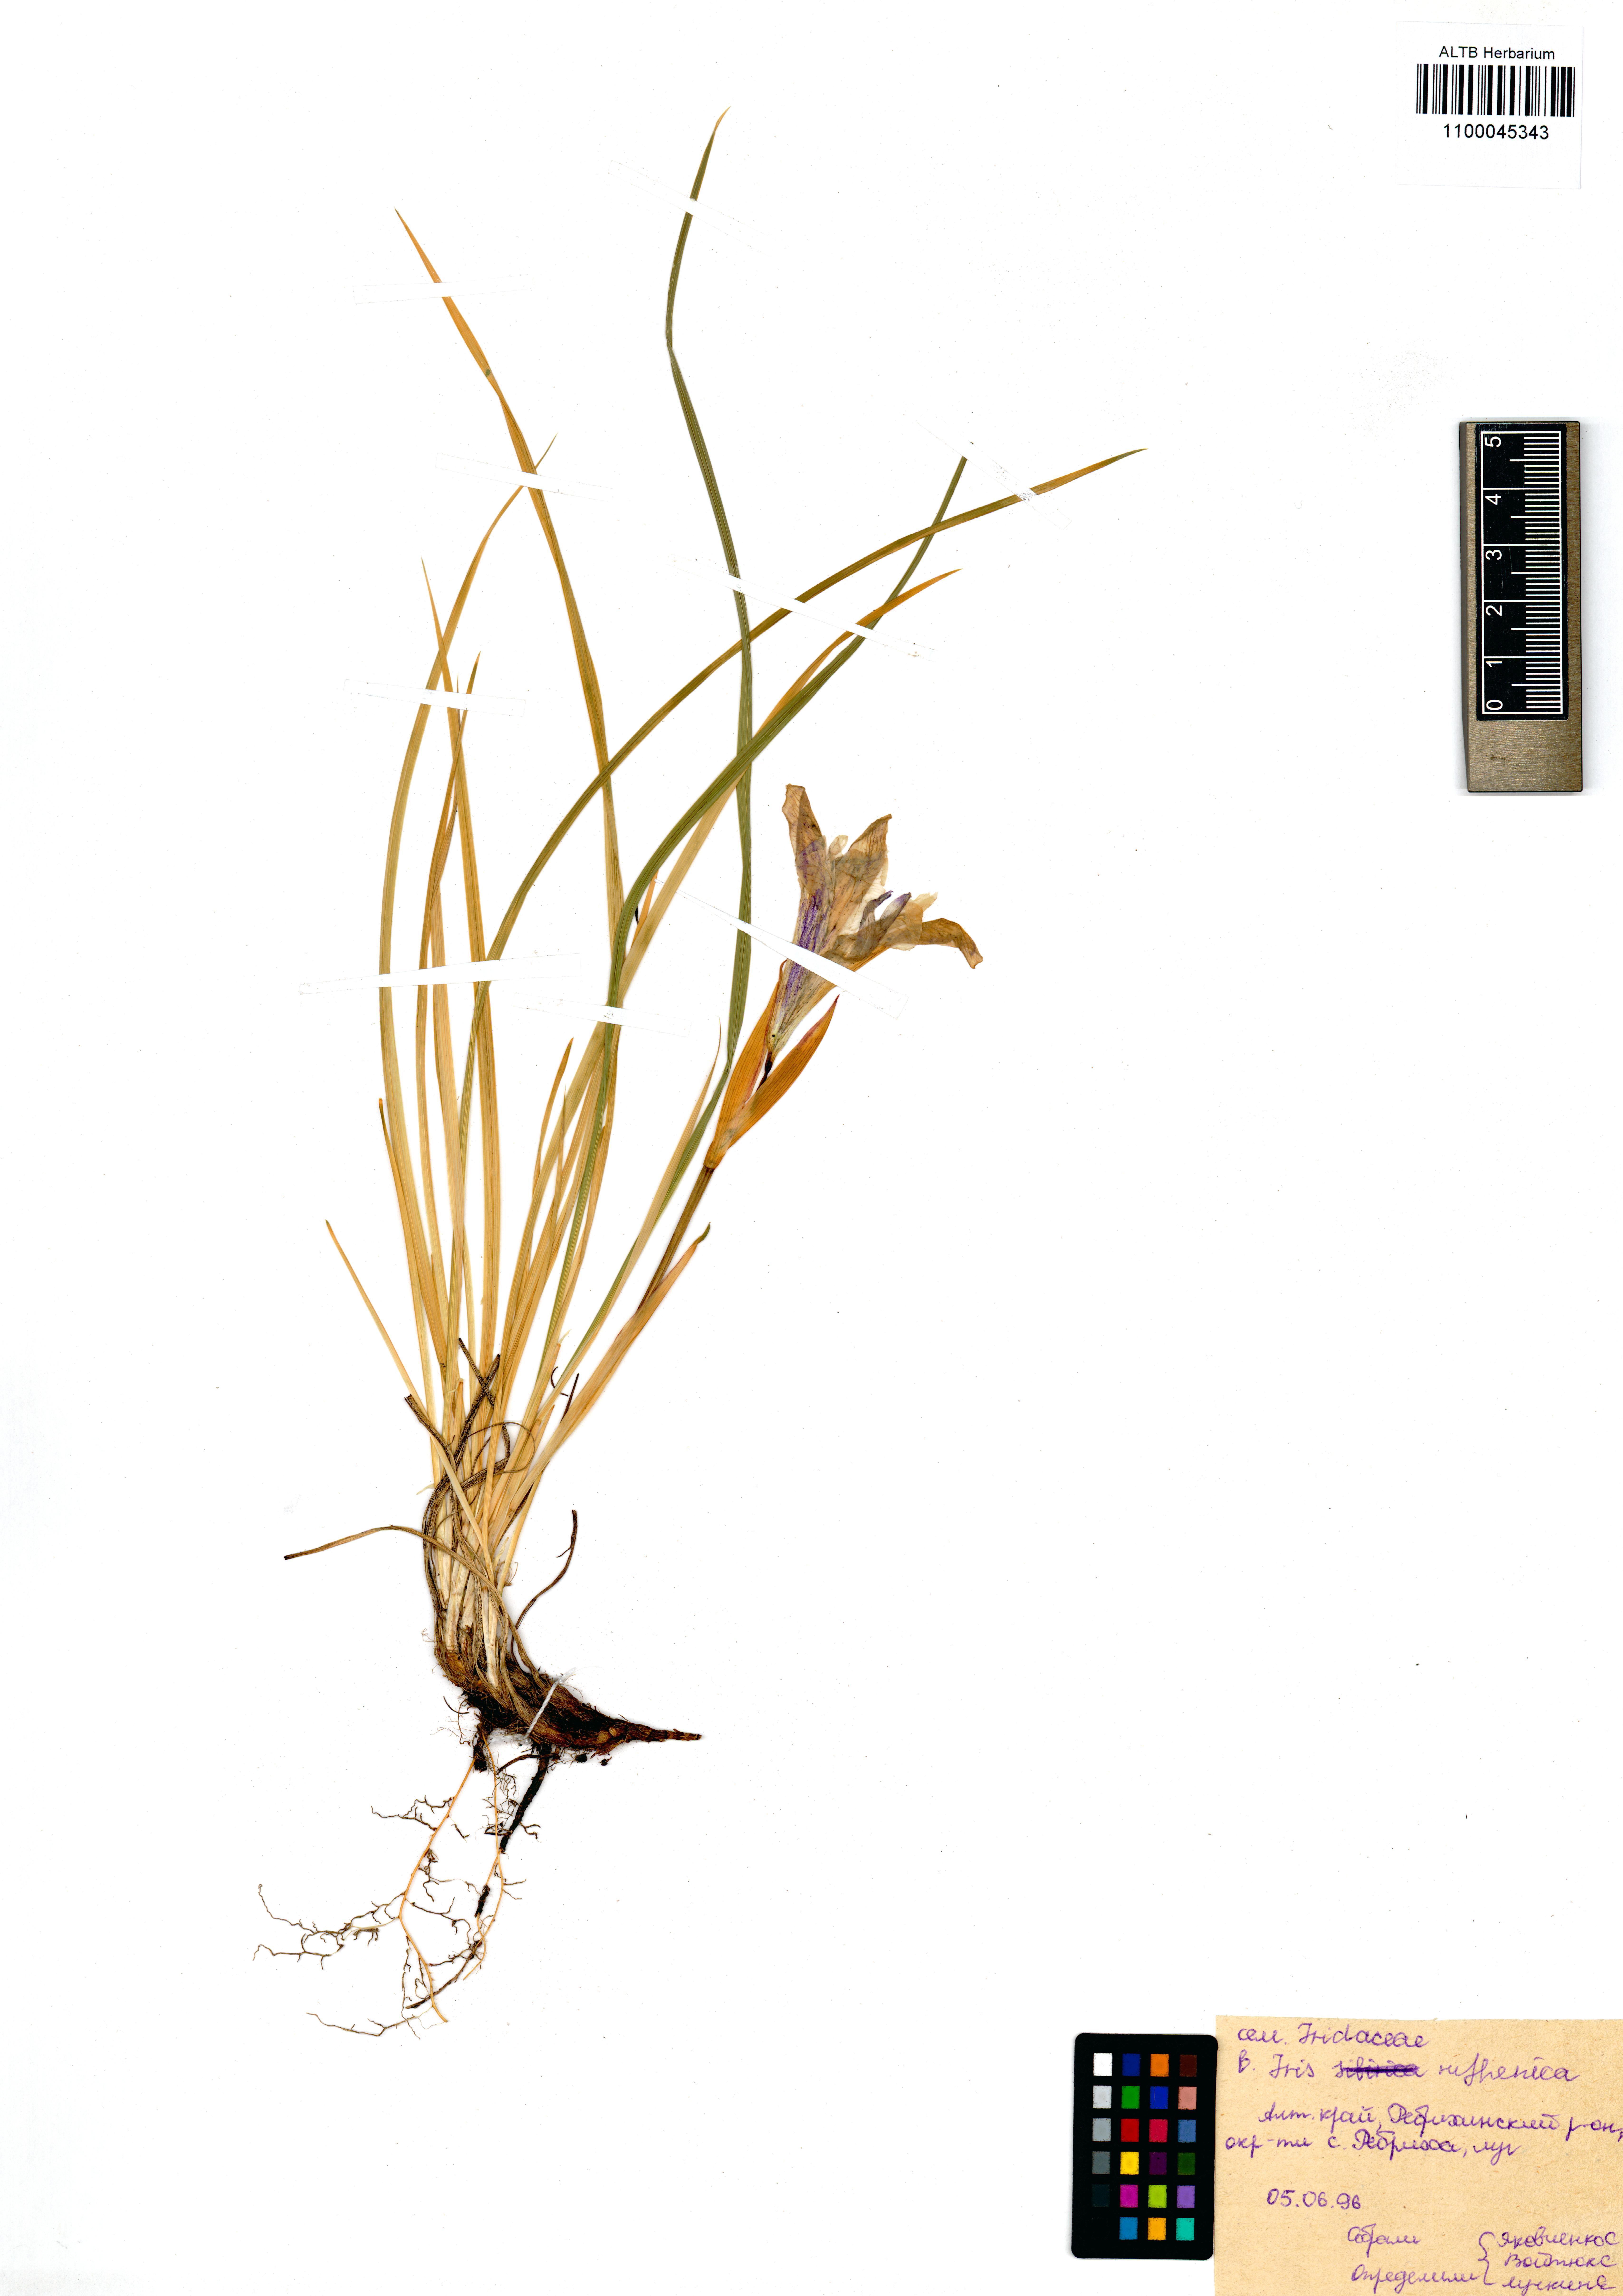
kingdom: Plantae
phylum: Tracheophyta
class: Liliopsida
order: Asparagales
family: Iridaceae
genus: Iris
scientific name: Iris ruthenica
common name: Purple-bract iris
